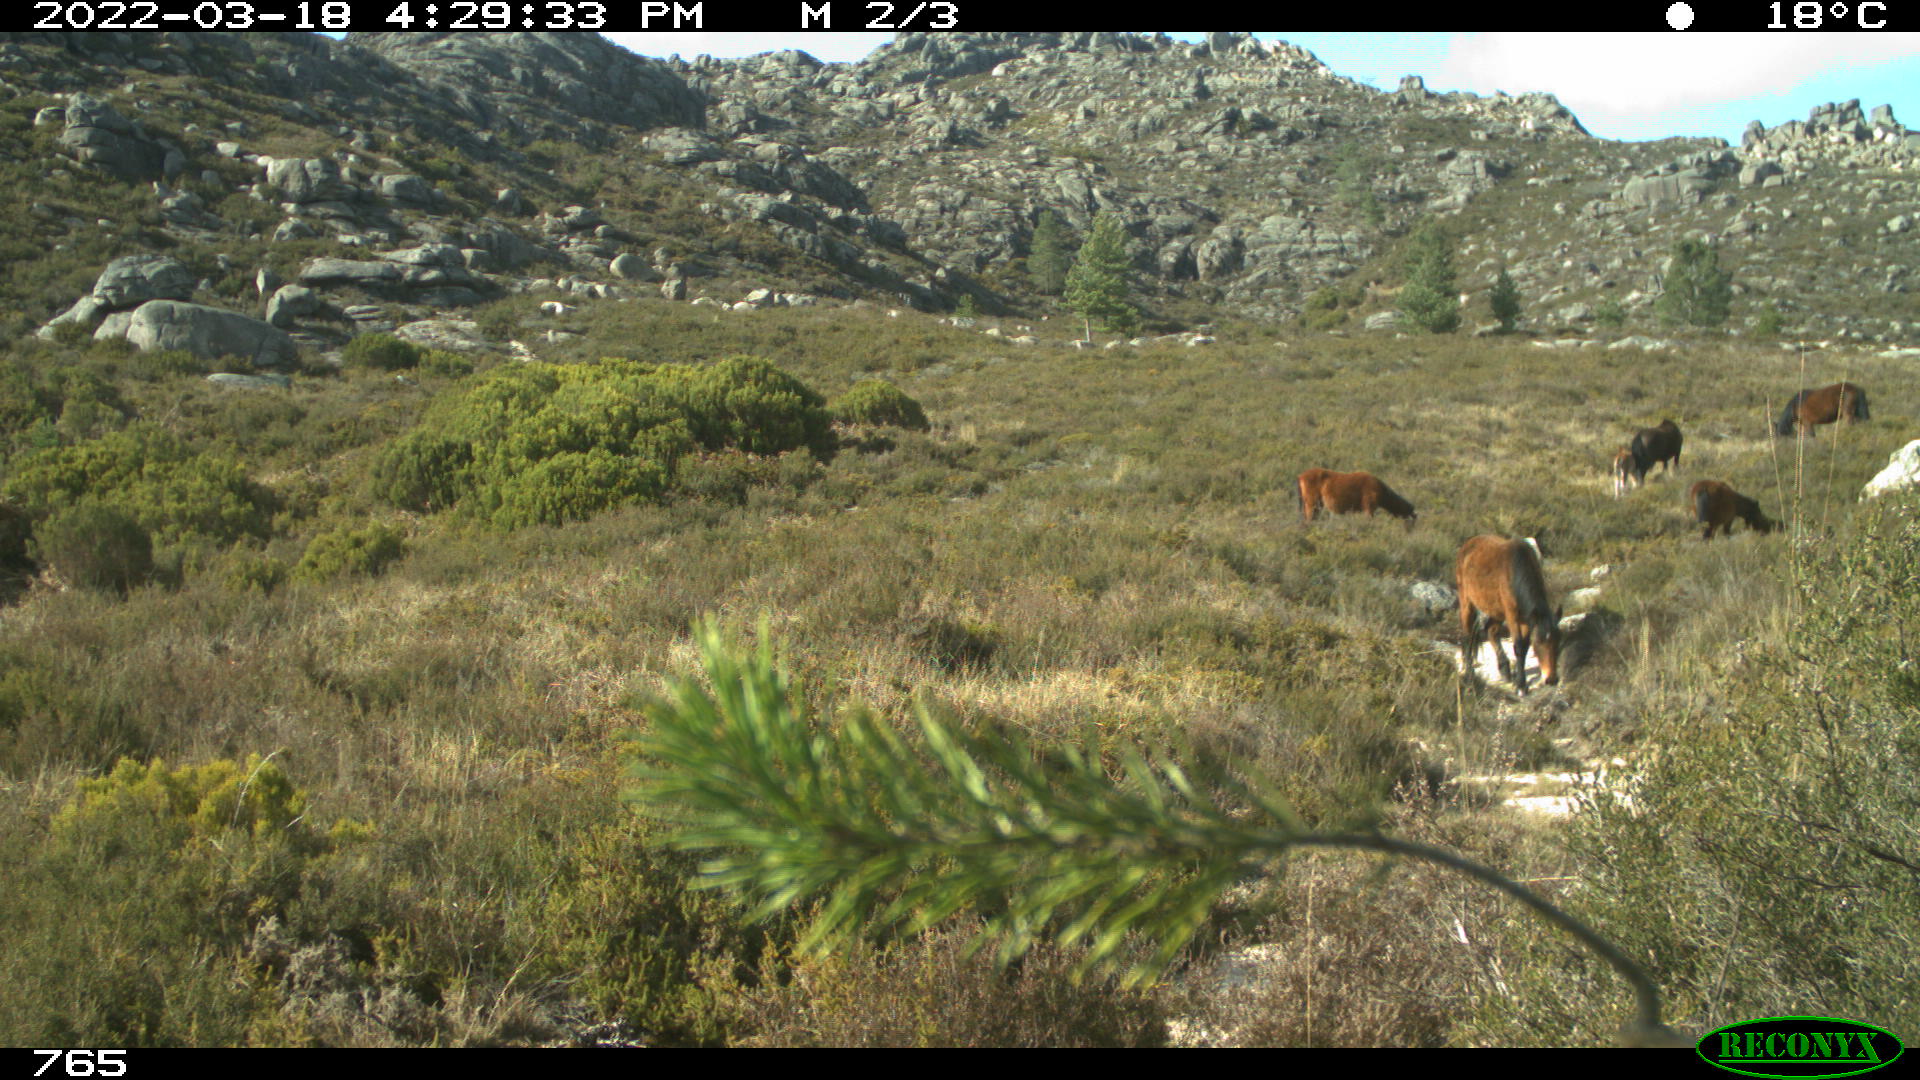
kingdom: Animalia
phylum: Chordata
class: Mammalia
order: Perissodactyla
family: Equidae
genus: Equus
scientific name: Equus caballus
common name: Horse
